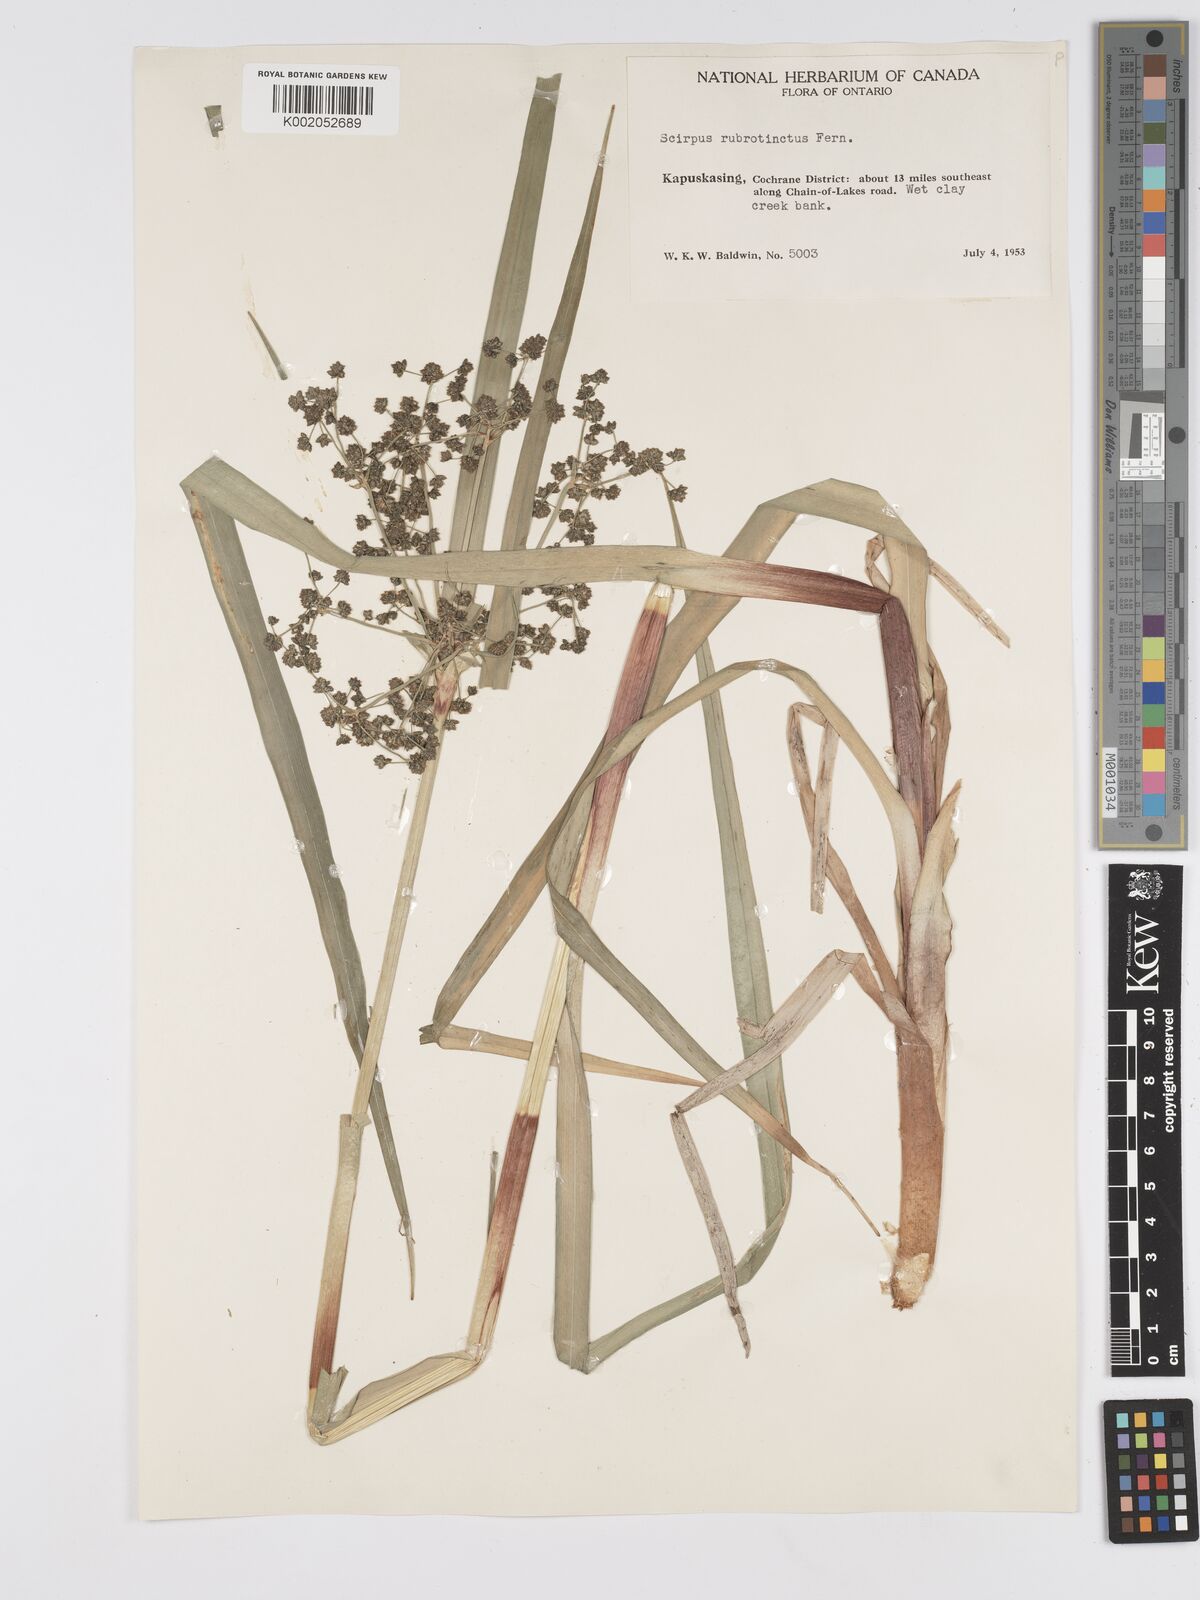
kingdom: Plantae
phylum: Tracheophyta
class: Liliopsida
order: Poales
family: Cyperaceae
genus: Scirpus
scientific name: Scirpus microcarpus
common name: Panicled bulrush
